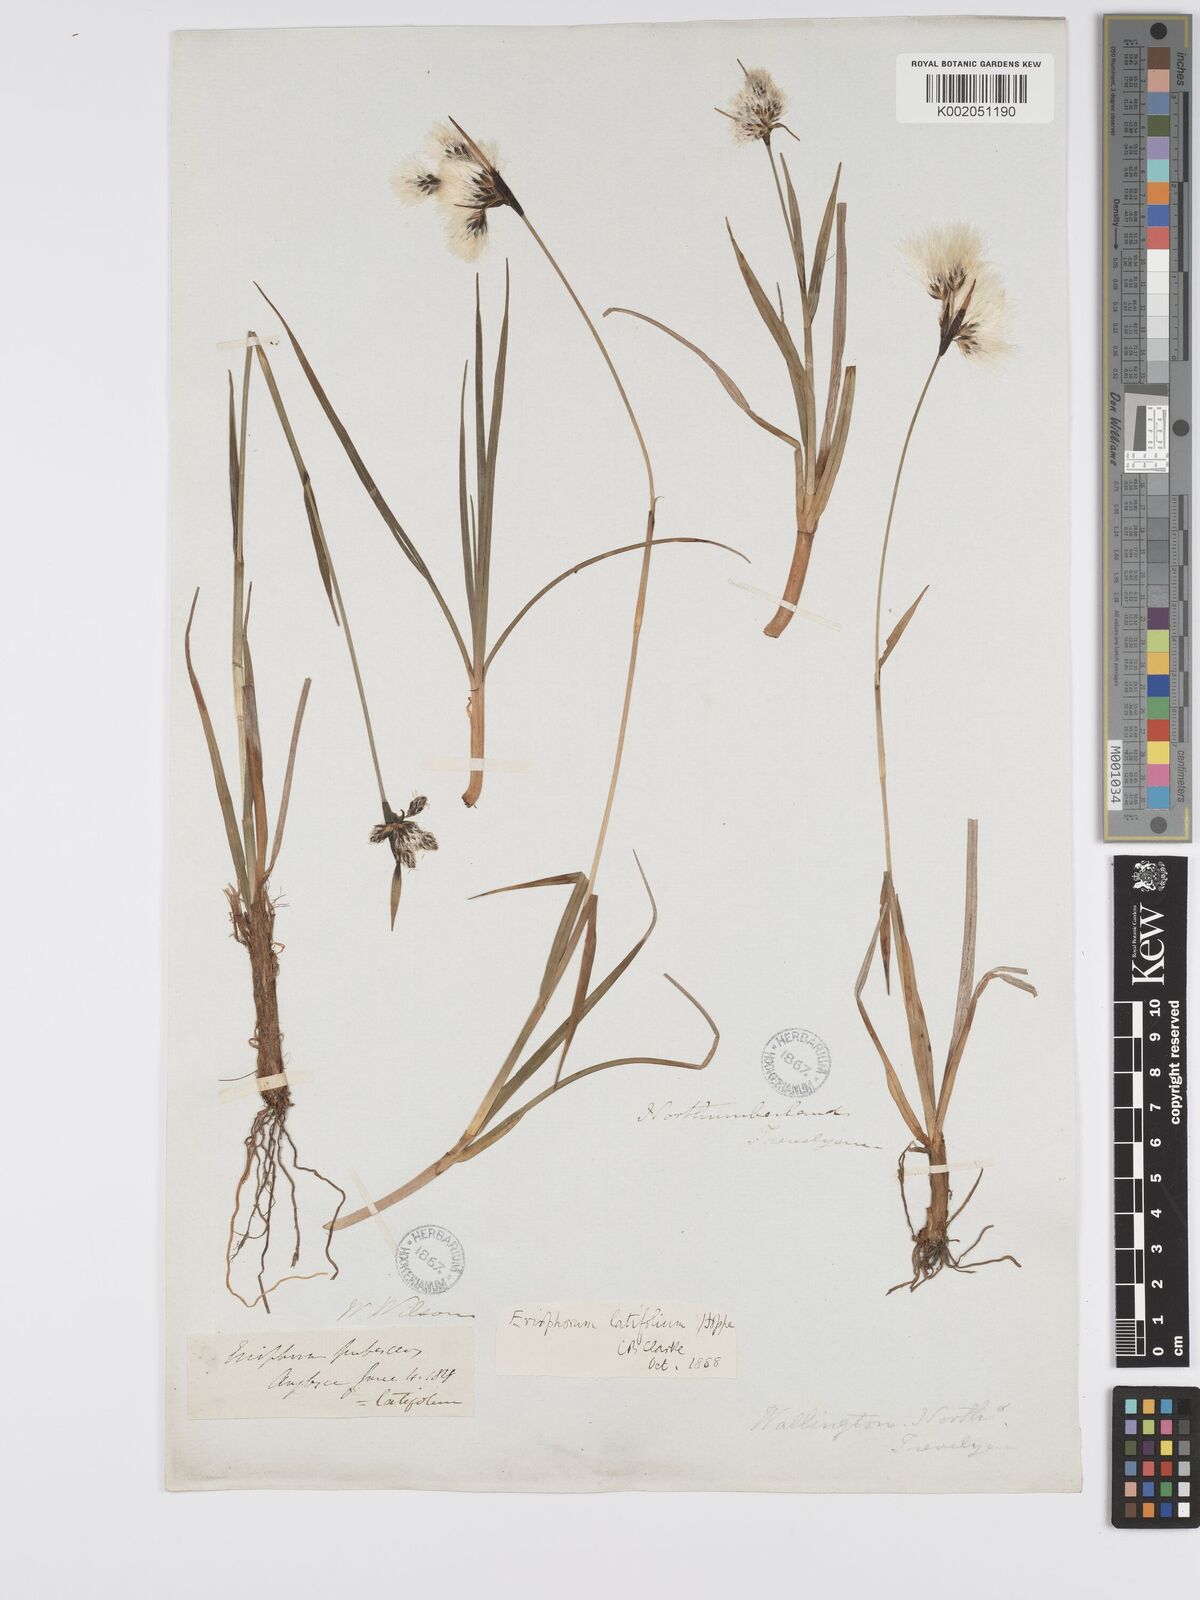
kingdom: Plantae
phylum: Tracheophyta
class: Liliopsida
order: Poales
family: Cyperaceae
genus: Eriophorum
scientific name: Eriophorum latifolium
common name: Broad-leaved cottongrass
